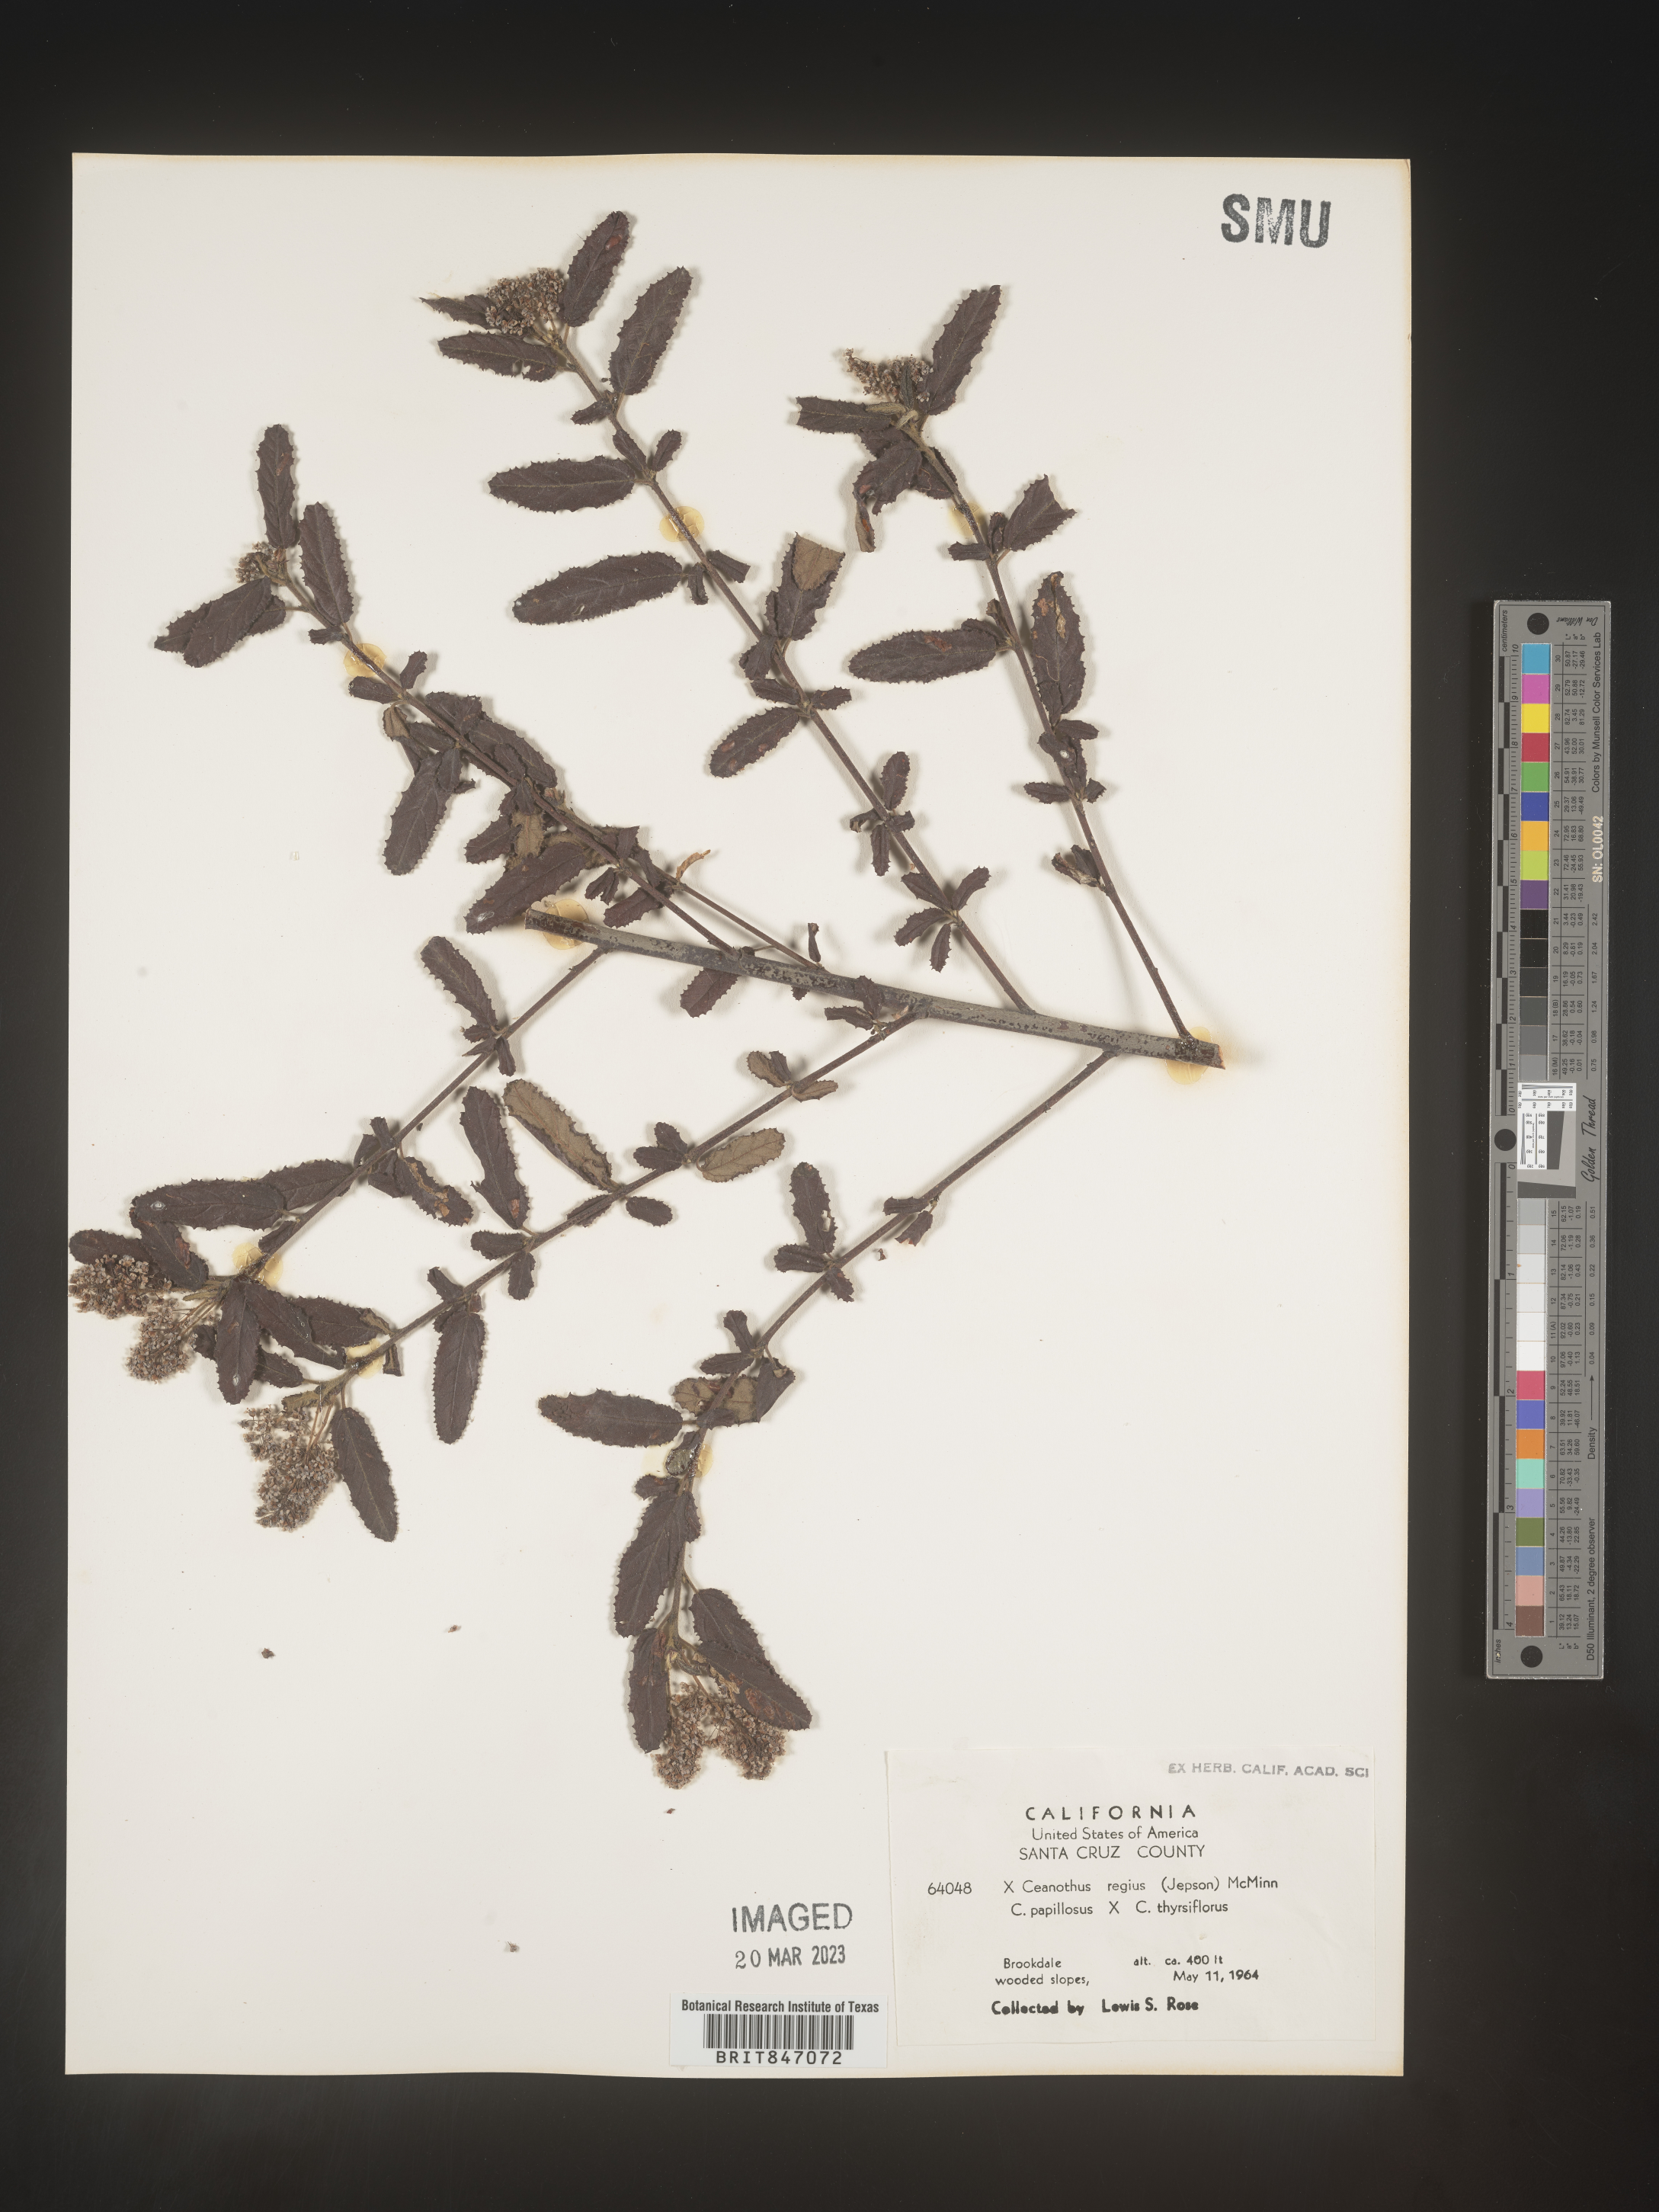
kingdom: Plantae
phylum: Tracheophyta
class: Magnoliopsida
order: Rosales
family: Rhamnaceae
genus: Ceanothus
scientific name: Ceanothus
